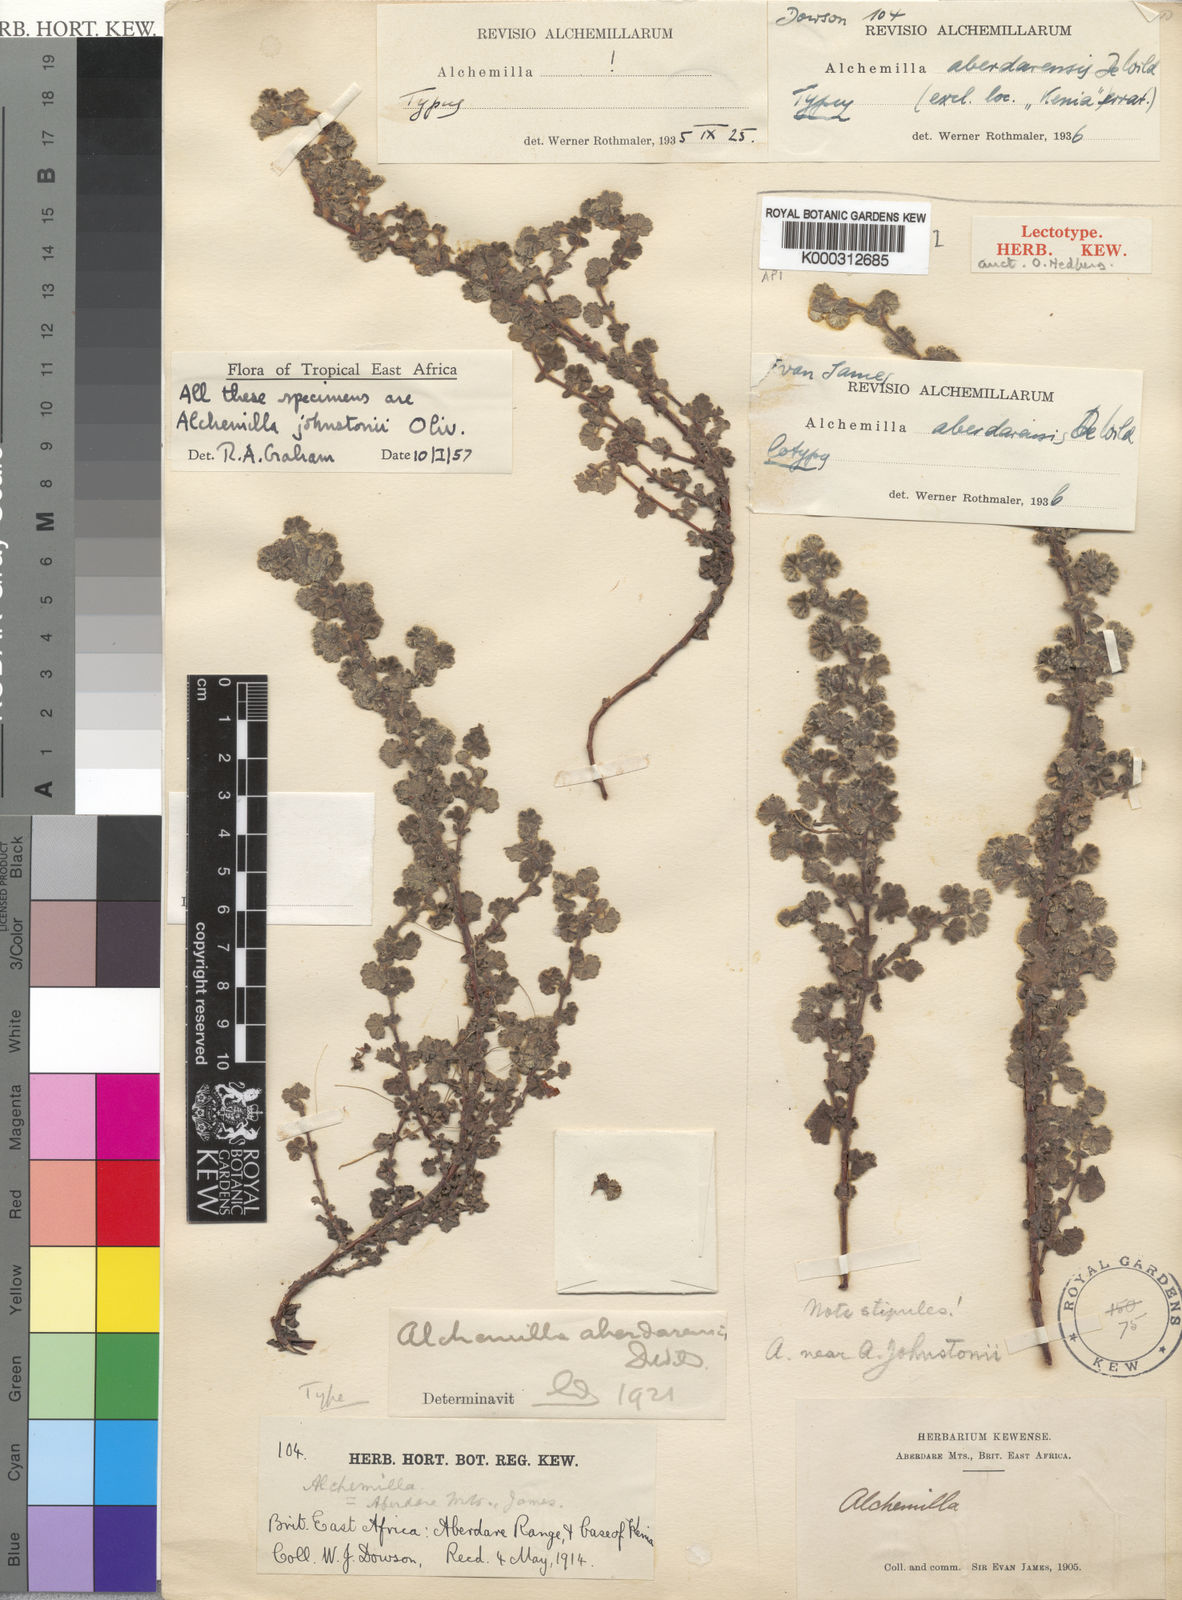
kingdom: Plantae
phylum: Tracheophyta
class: Magnoliopsida
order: Rosales
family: Rosaceae
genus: Alchemilla
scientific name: Alchemilla johnstonii
